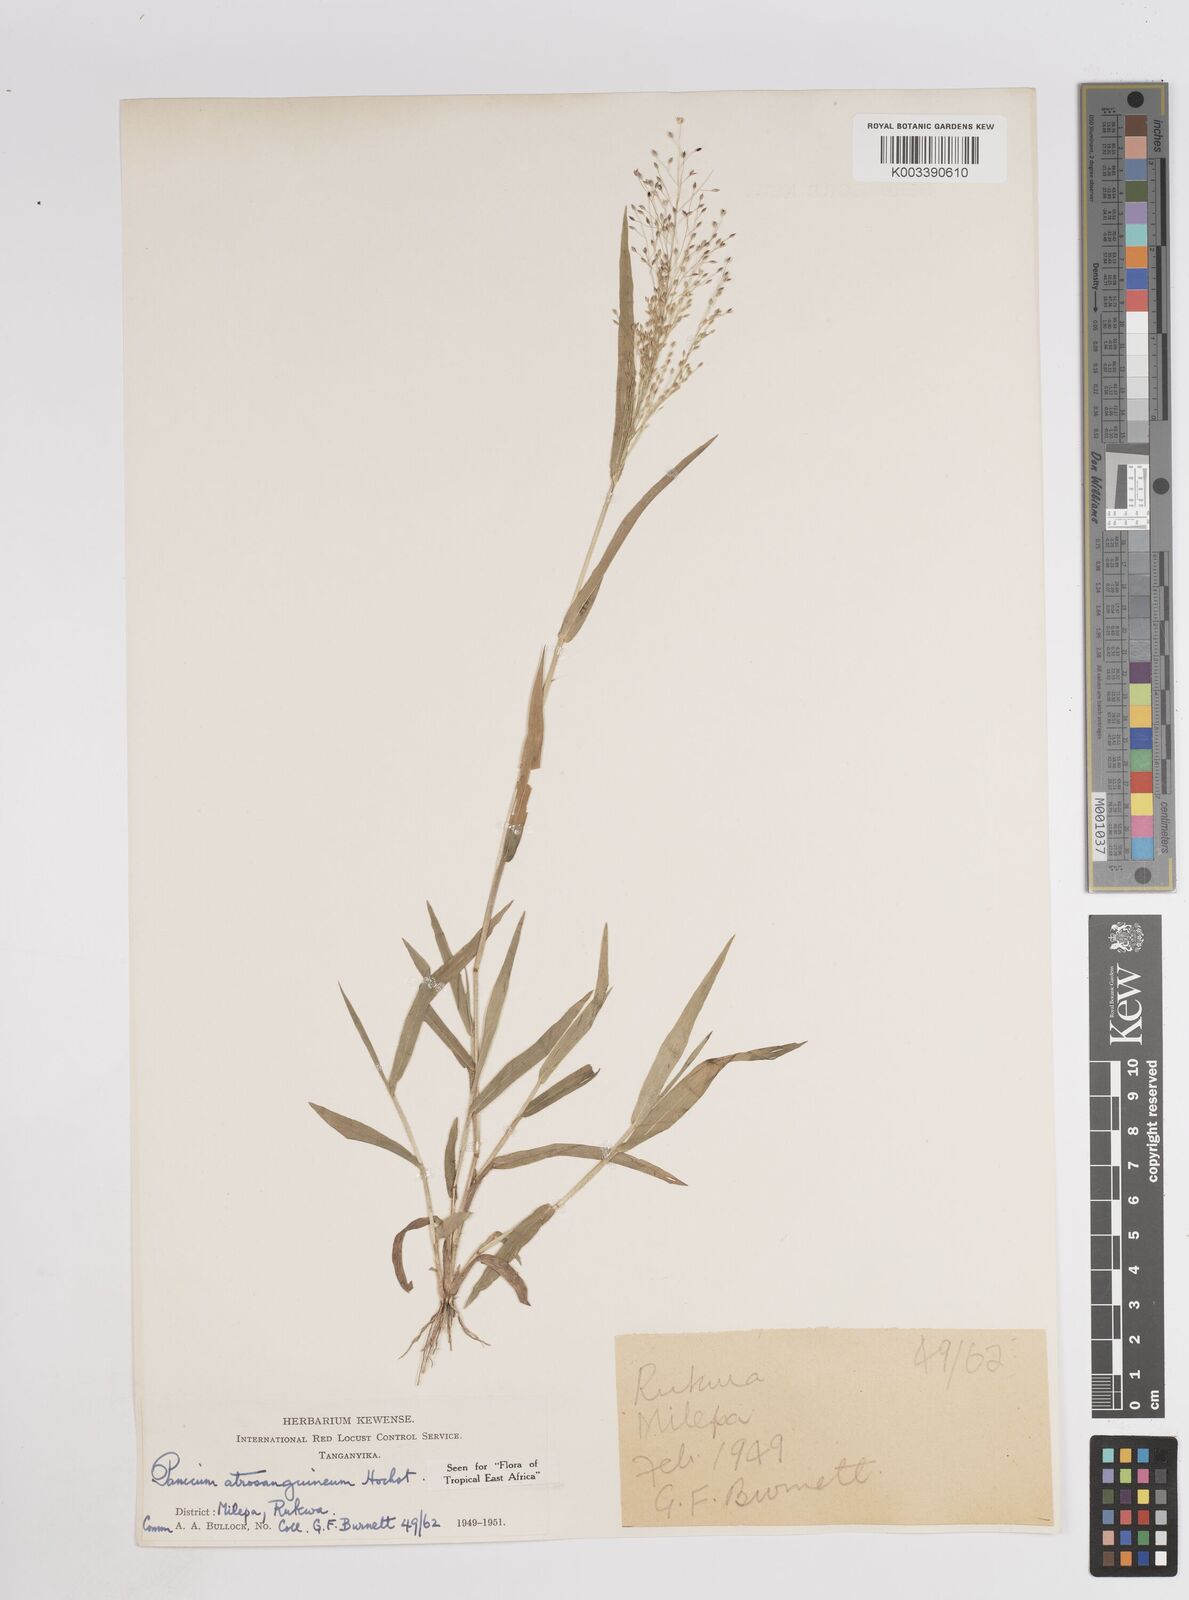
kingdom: Plantae
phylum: Tracheophyta
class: Liliopsida
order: Poales
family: Poaceae
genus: Panicum
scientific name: Panicum atrosanguineum
